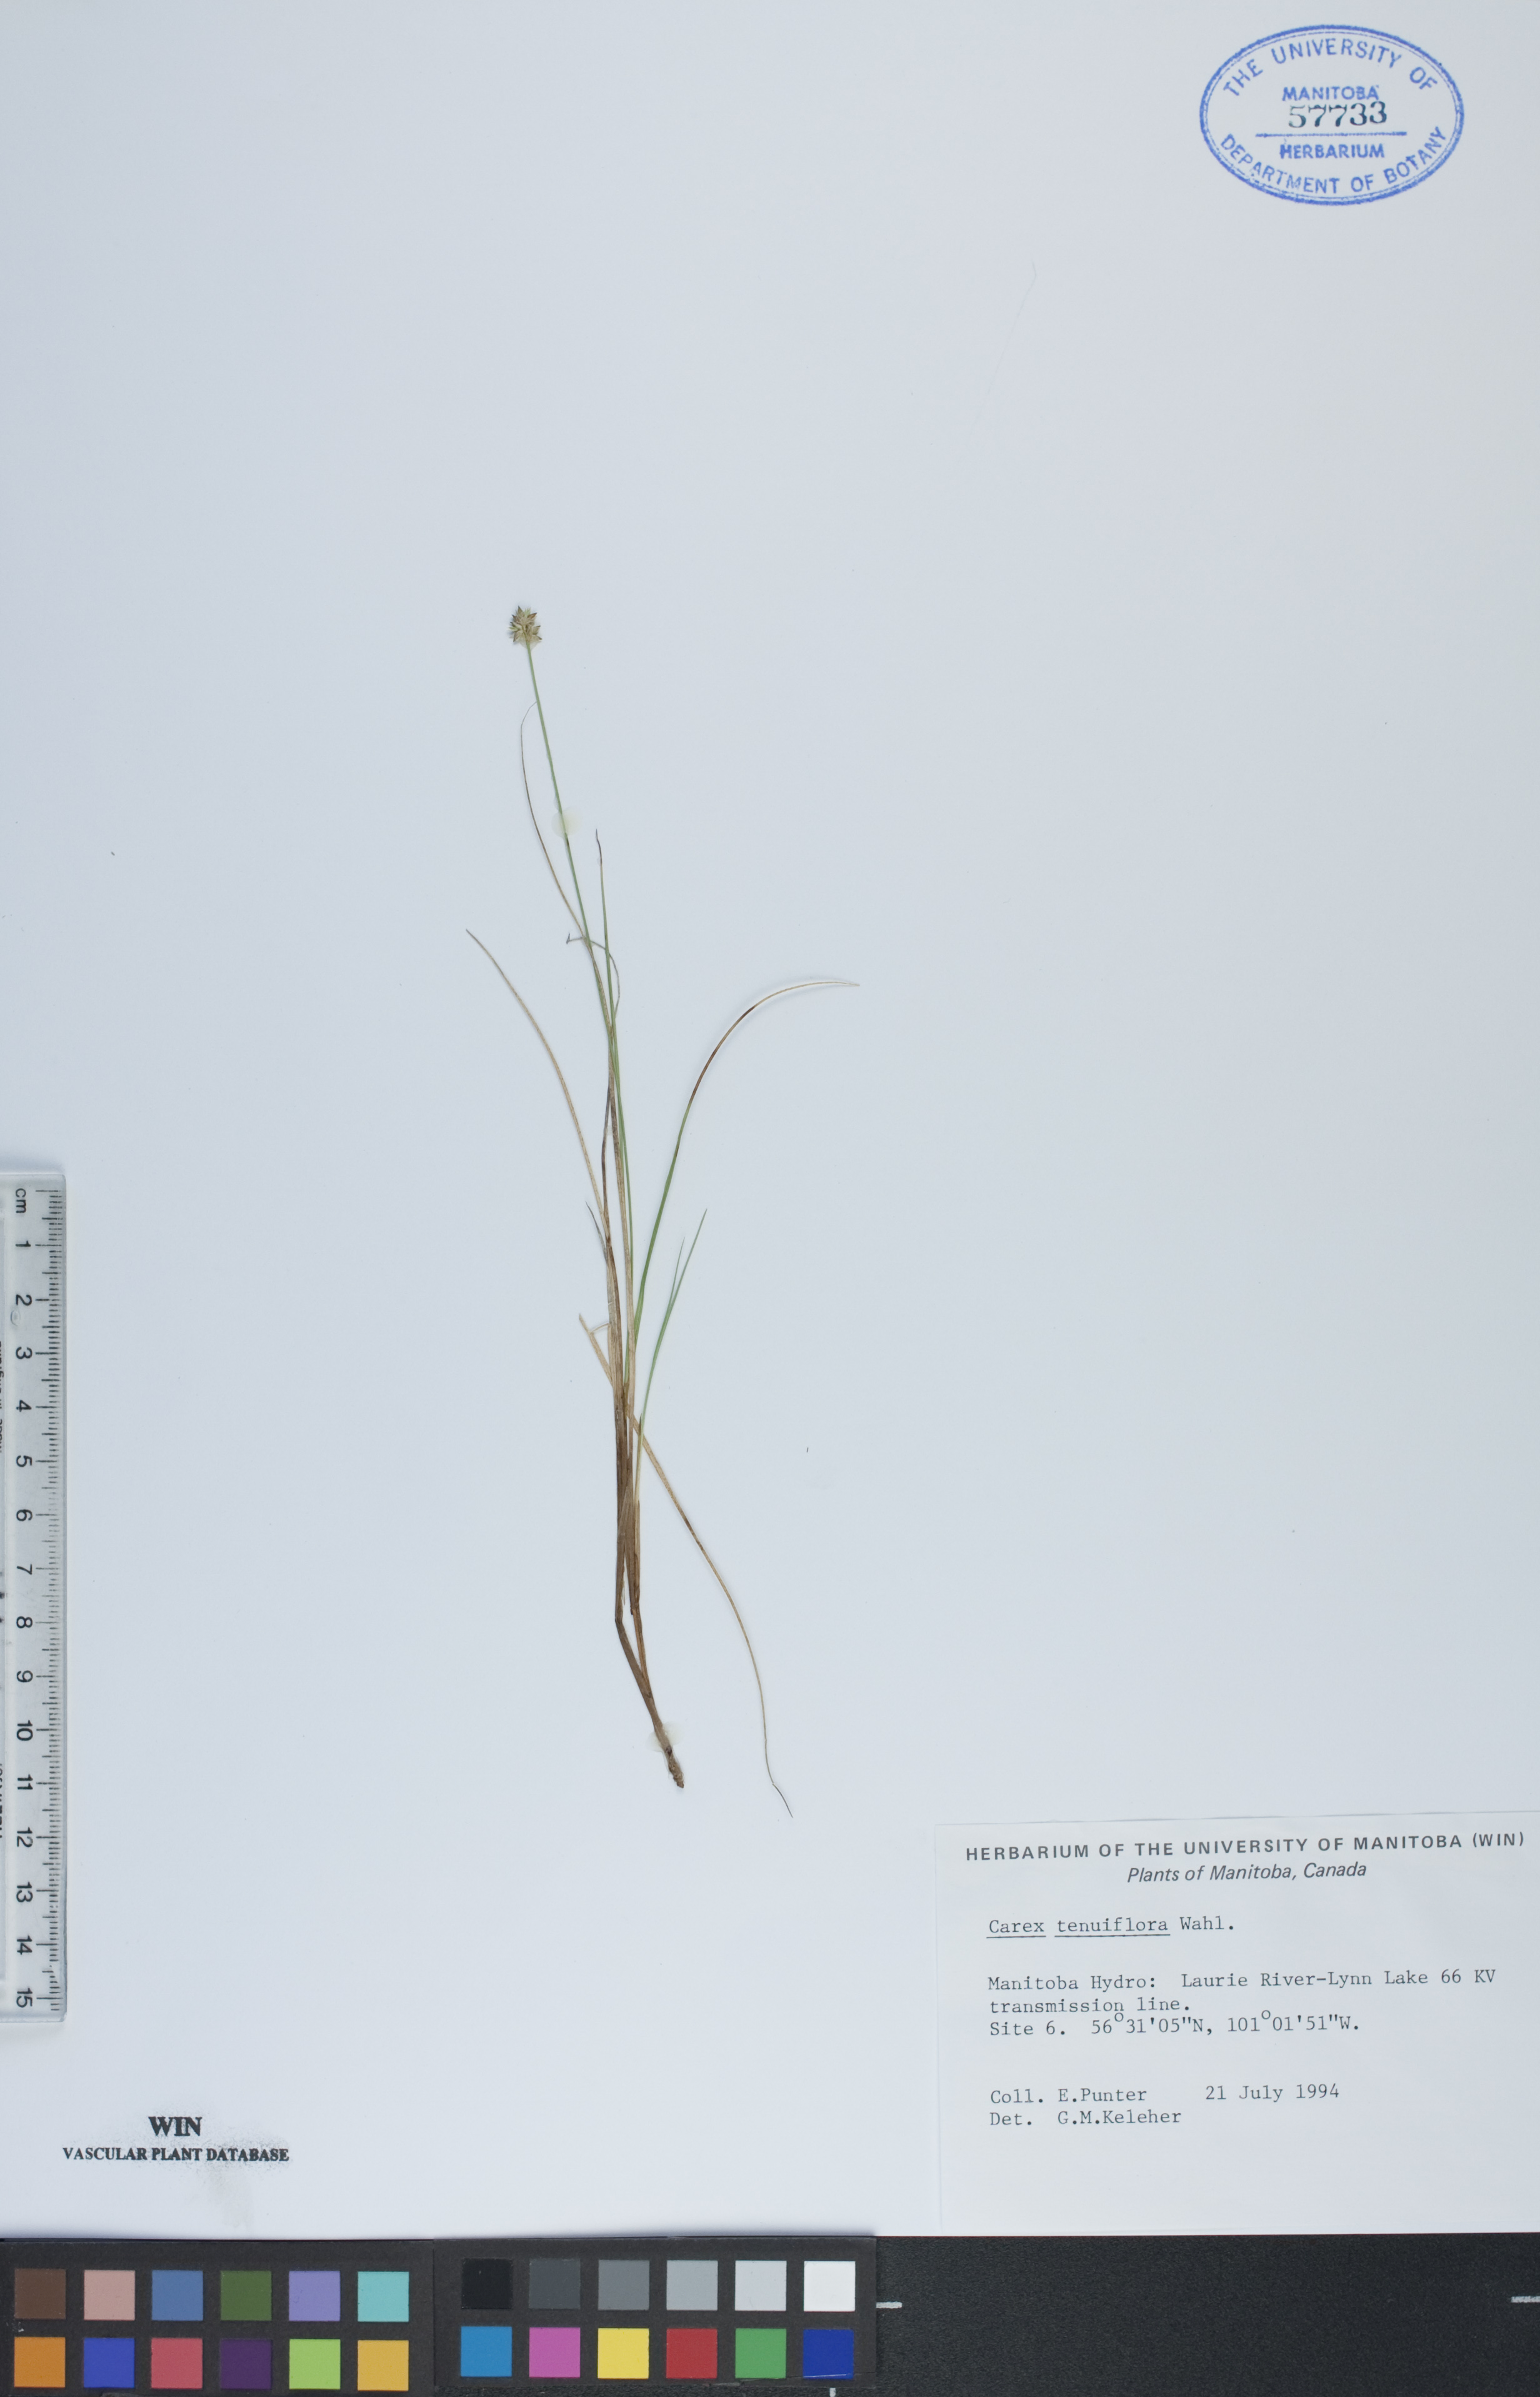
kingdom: Plantae
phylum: Tracheophyta
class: Liliopsida
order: Poales
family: Cyperaceae
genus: Carex
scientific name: Carex tenuiflora
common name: Sparse-flowered sedge
